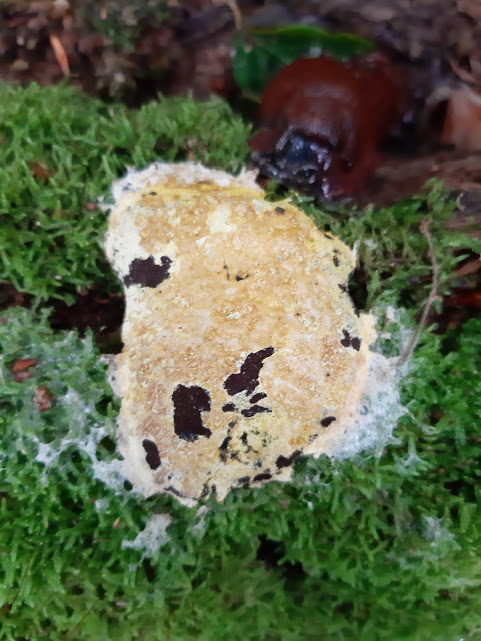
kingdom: Protozoa
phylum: Mycetozoa
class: Myxomycetes
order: Physarales
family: Physaraceae
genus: Fuligo
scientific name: Fuligo septica
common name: gul troldsmør
